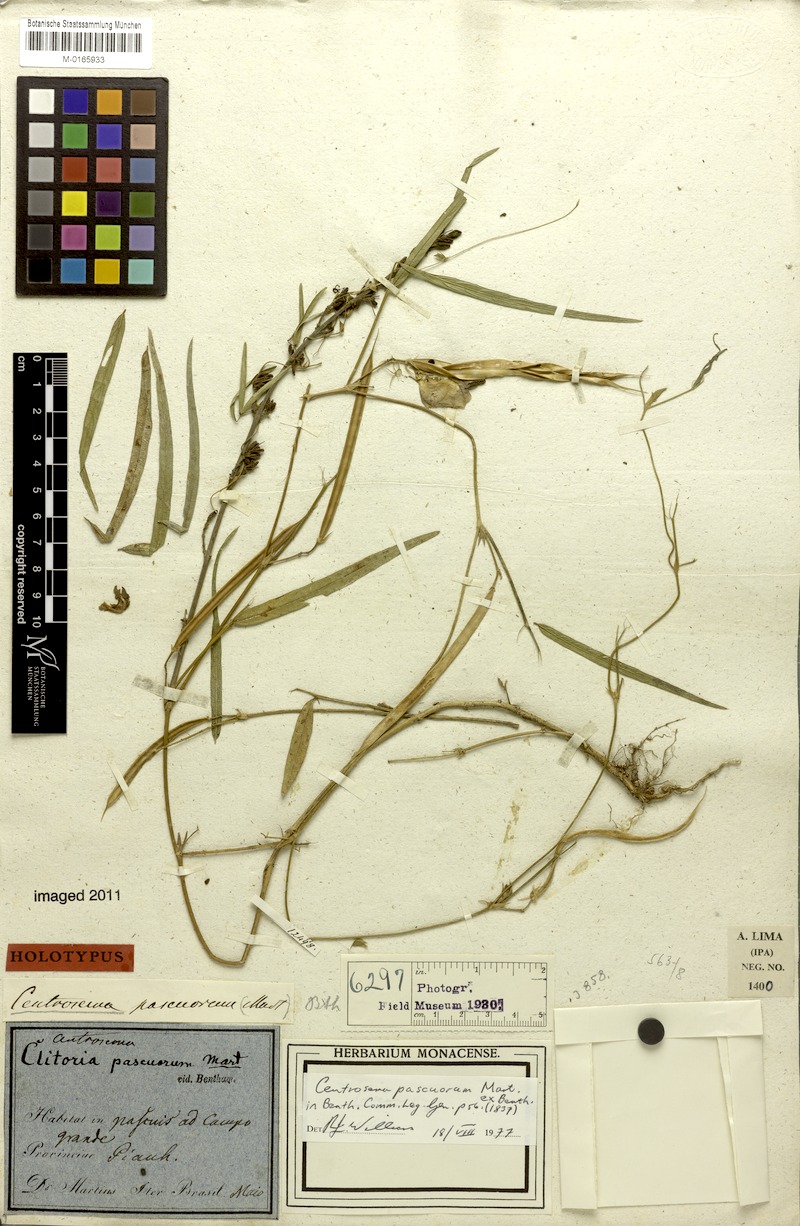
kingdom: Plantae
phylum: Tracheophyta
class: Magnoliopsida
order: Fabales
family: Fabaceae
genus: Centrosema
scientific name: Centrosema pascuorum
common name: Centurion
